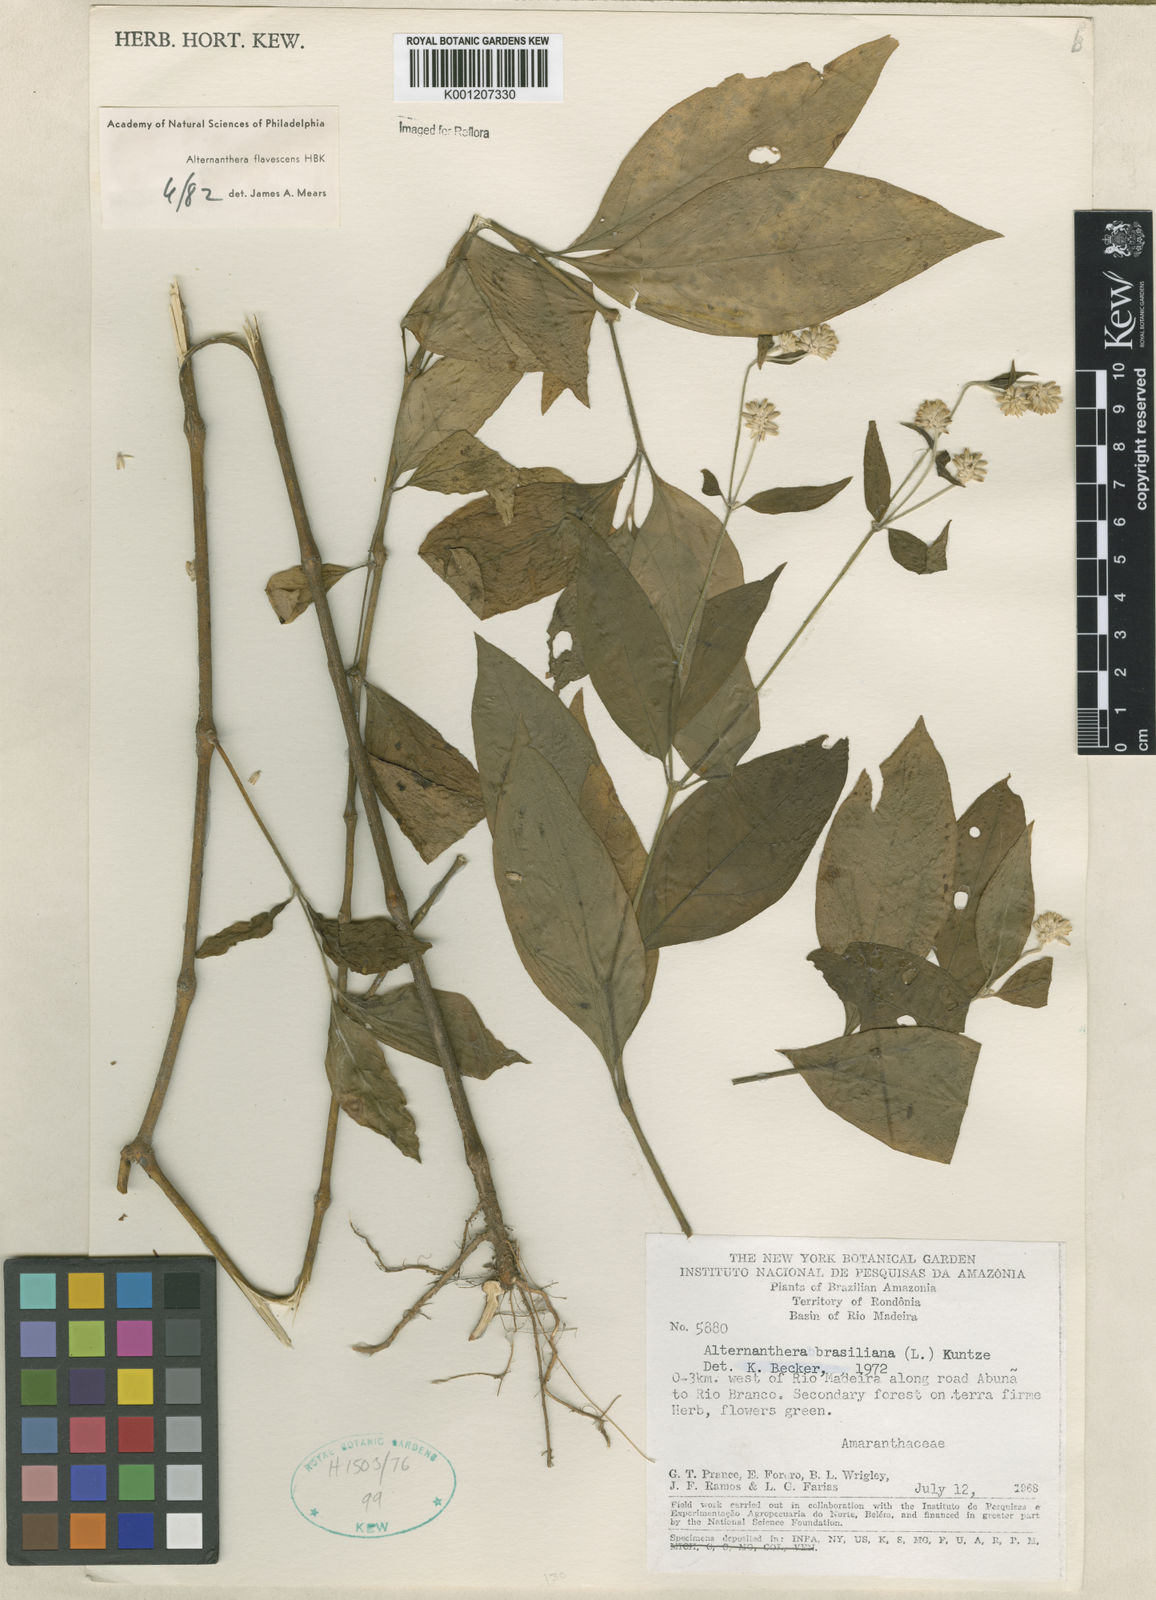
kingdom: Plantae
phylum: Tracheophyta
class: Magnoliopsida
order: Caryophyllales
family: Amaranthaceae
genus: Alternanthera
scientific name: Alternanthera brasiliana
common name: Brazilian joyweed
